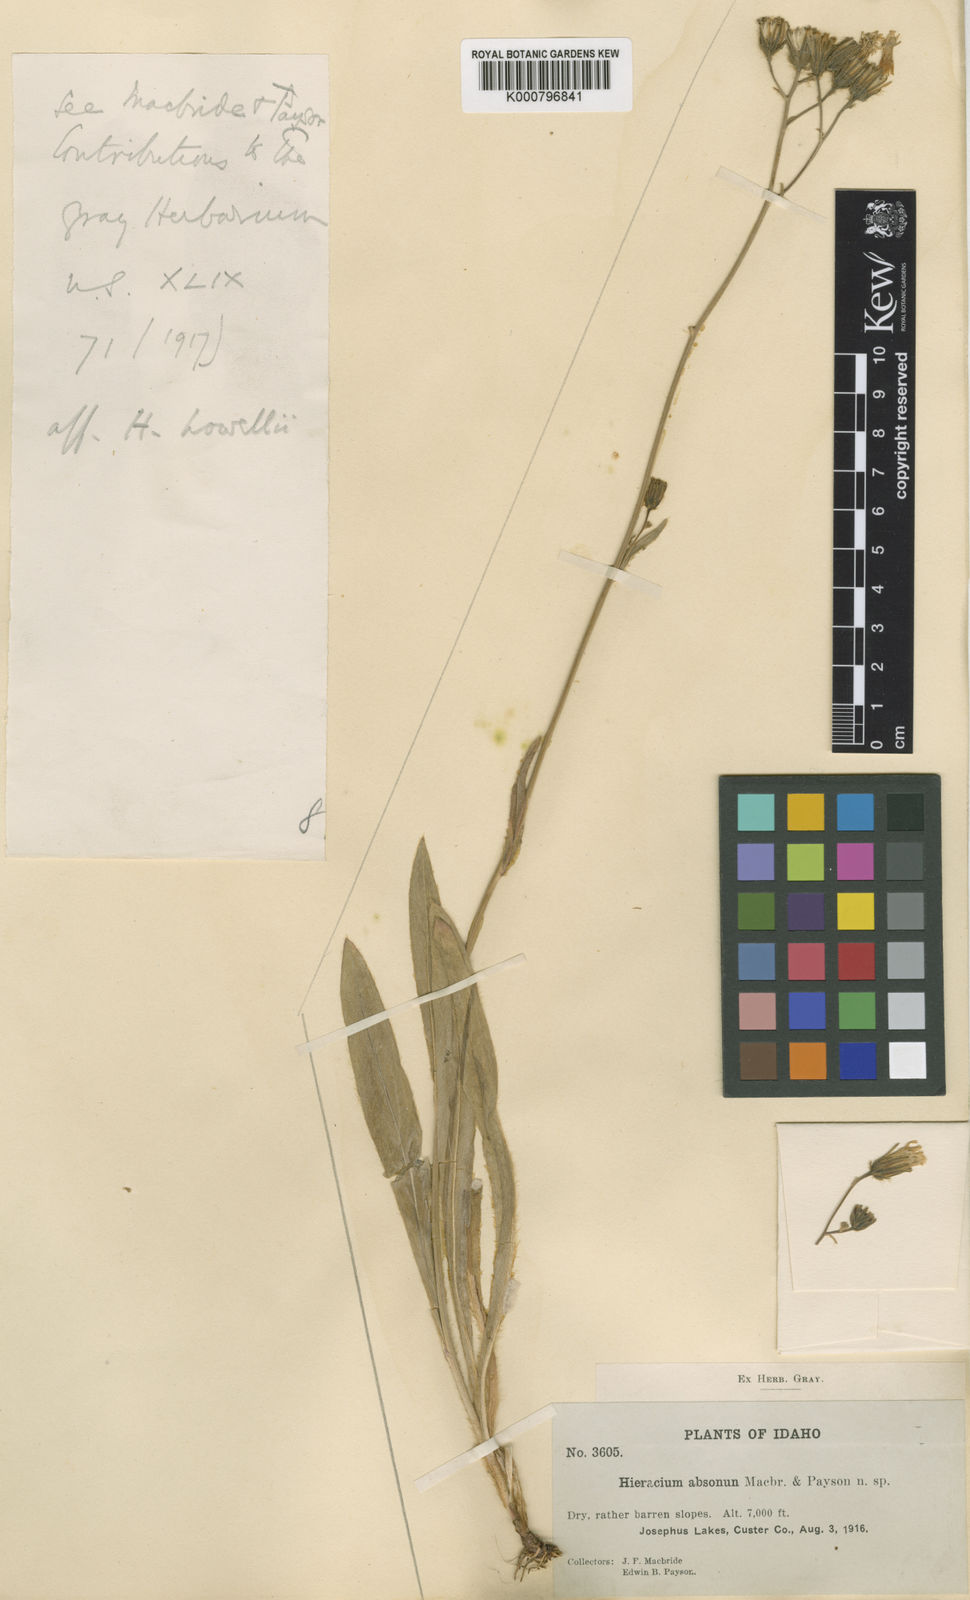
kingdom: Plantae
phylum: Tracheophyta
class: Magnoliopsida
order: Asterales
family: Asteraceae
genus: Hieracium
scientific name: Hieracium scouleri
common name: Hound's-tongue hawkweed
